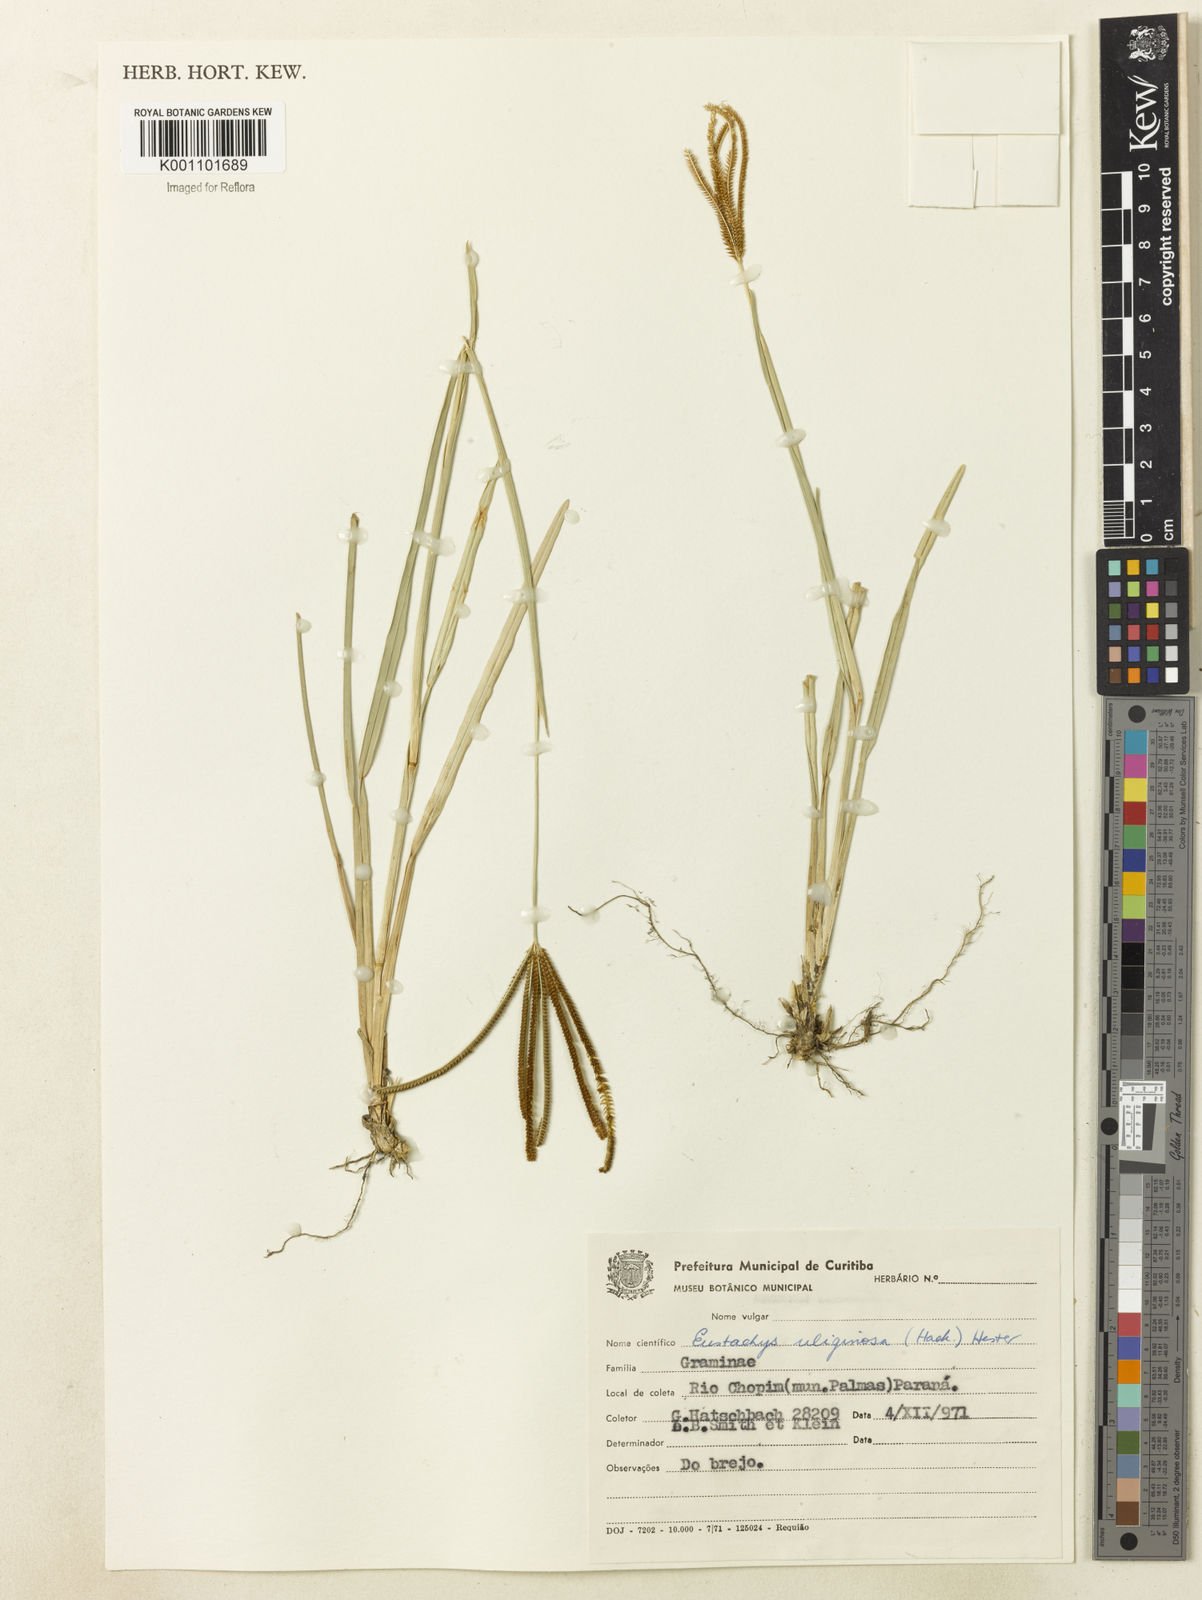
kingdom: Plantae
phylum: Tracheophyta
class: Liliopsida
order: Poales
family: Poaceae
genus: Eustachys
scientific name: Eustachys uliginosa
